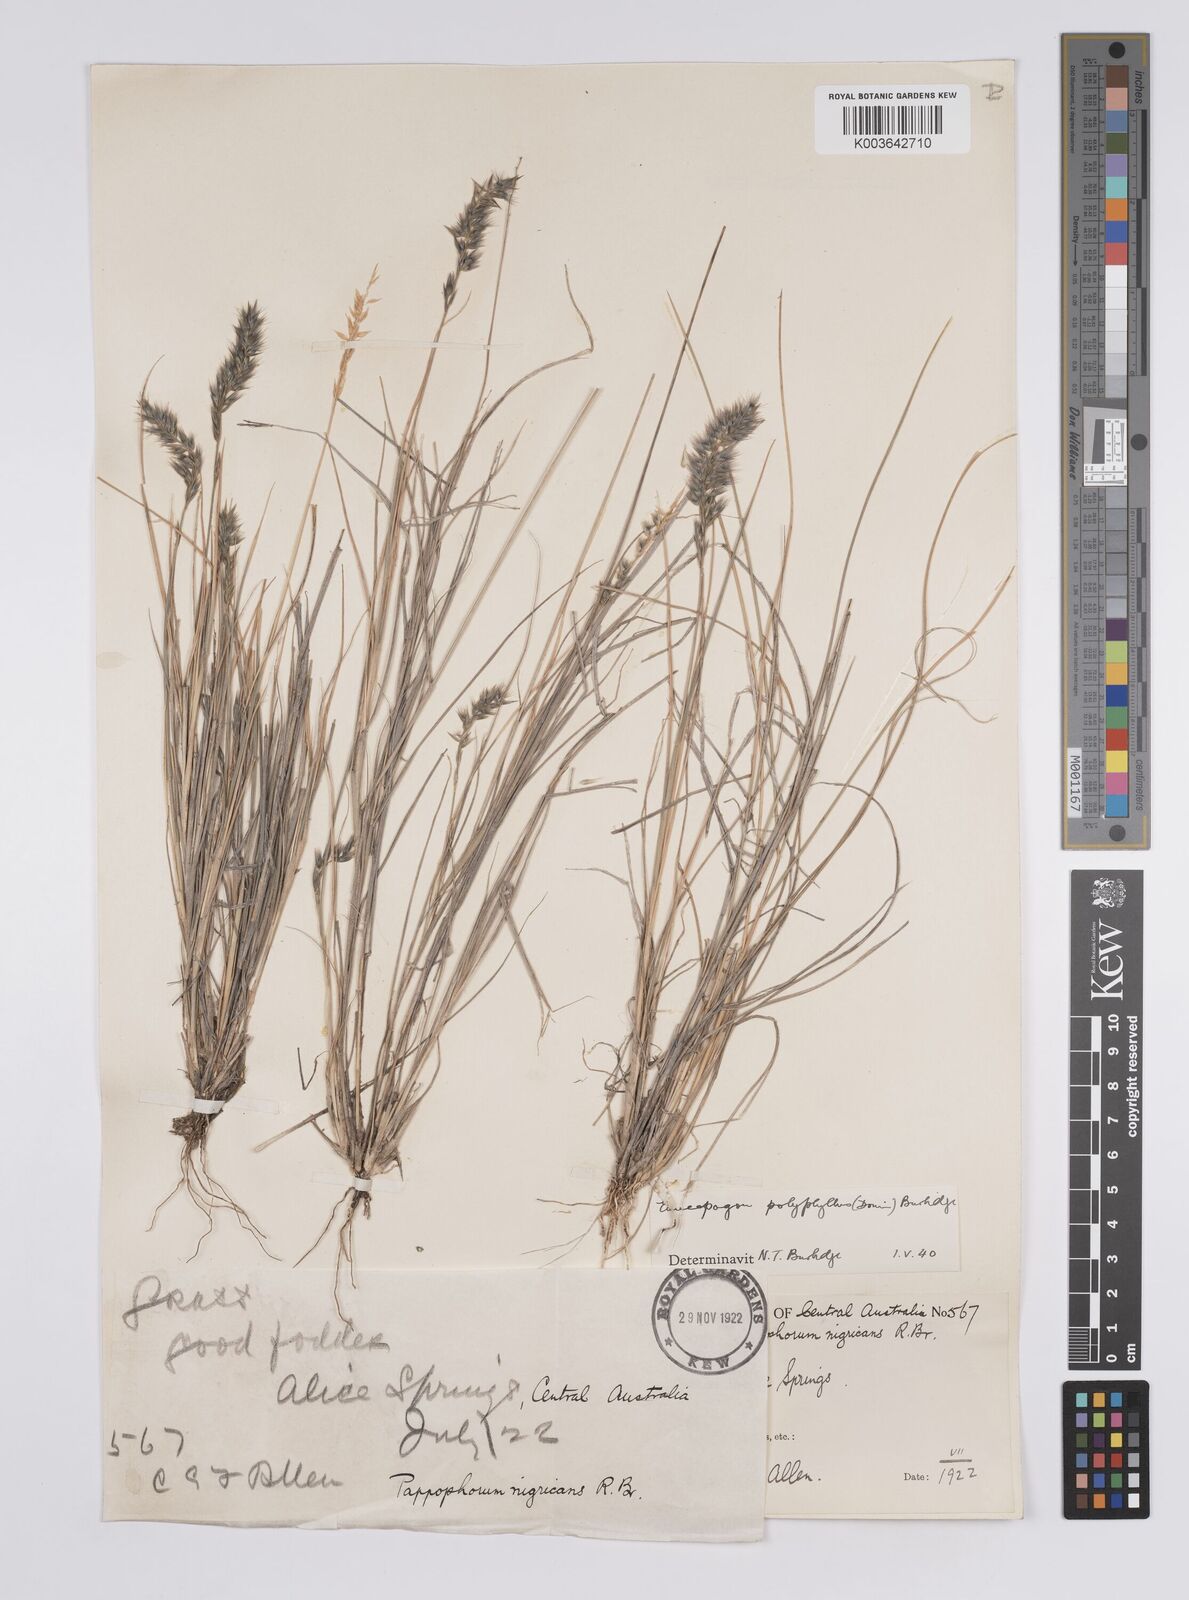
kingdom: Plantae
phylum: Tracheophyta
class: Liliopsida
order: Poales
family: Poaceae
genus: Enneapogon
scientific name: Enneapogon polyphyllus
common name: Leafy nineawn
